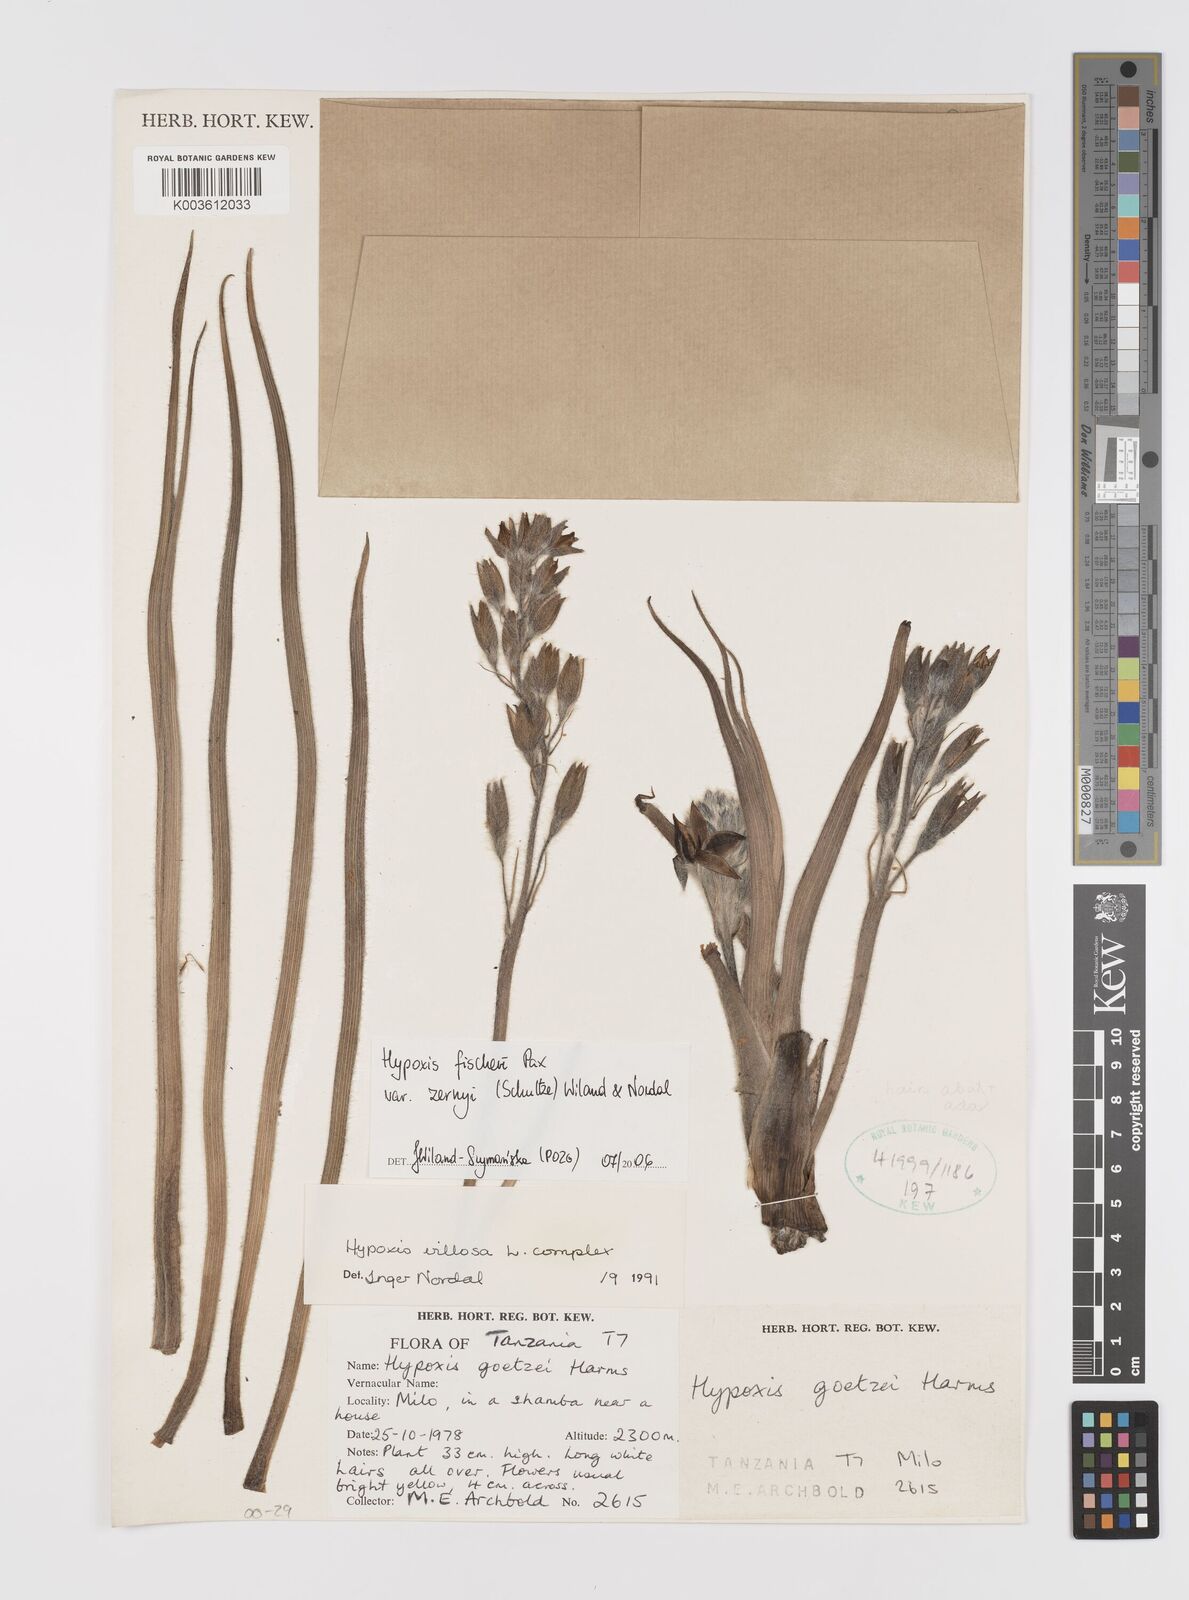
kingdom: Plantae
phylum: Tracheophyta
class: Liliopsida
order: Asparagales
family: Hypoxidaceae
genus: Hypoxis
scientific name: Hypoxis fischeri
